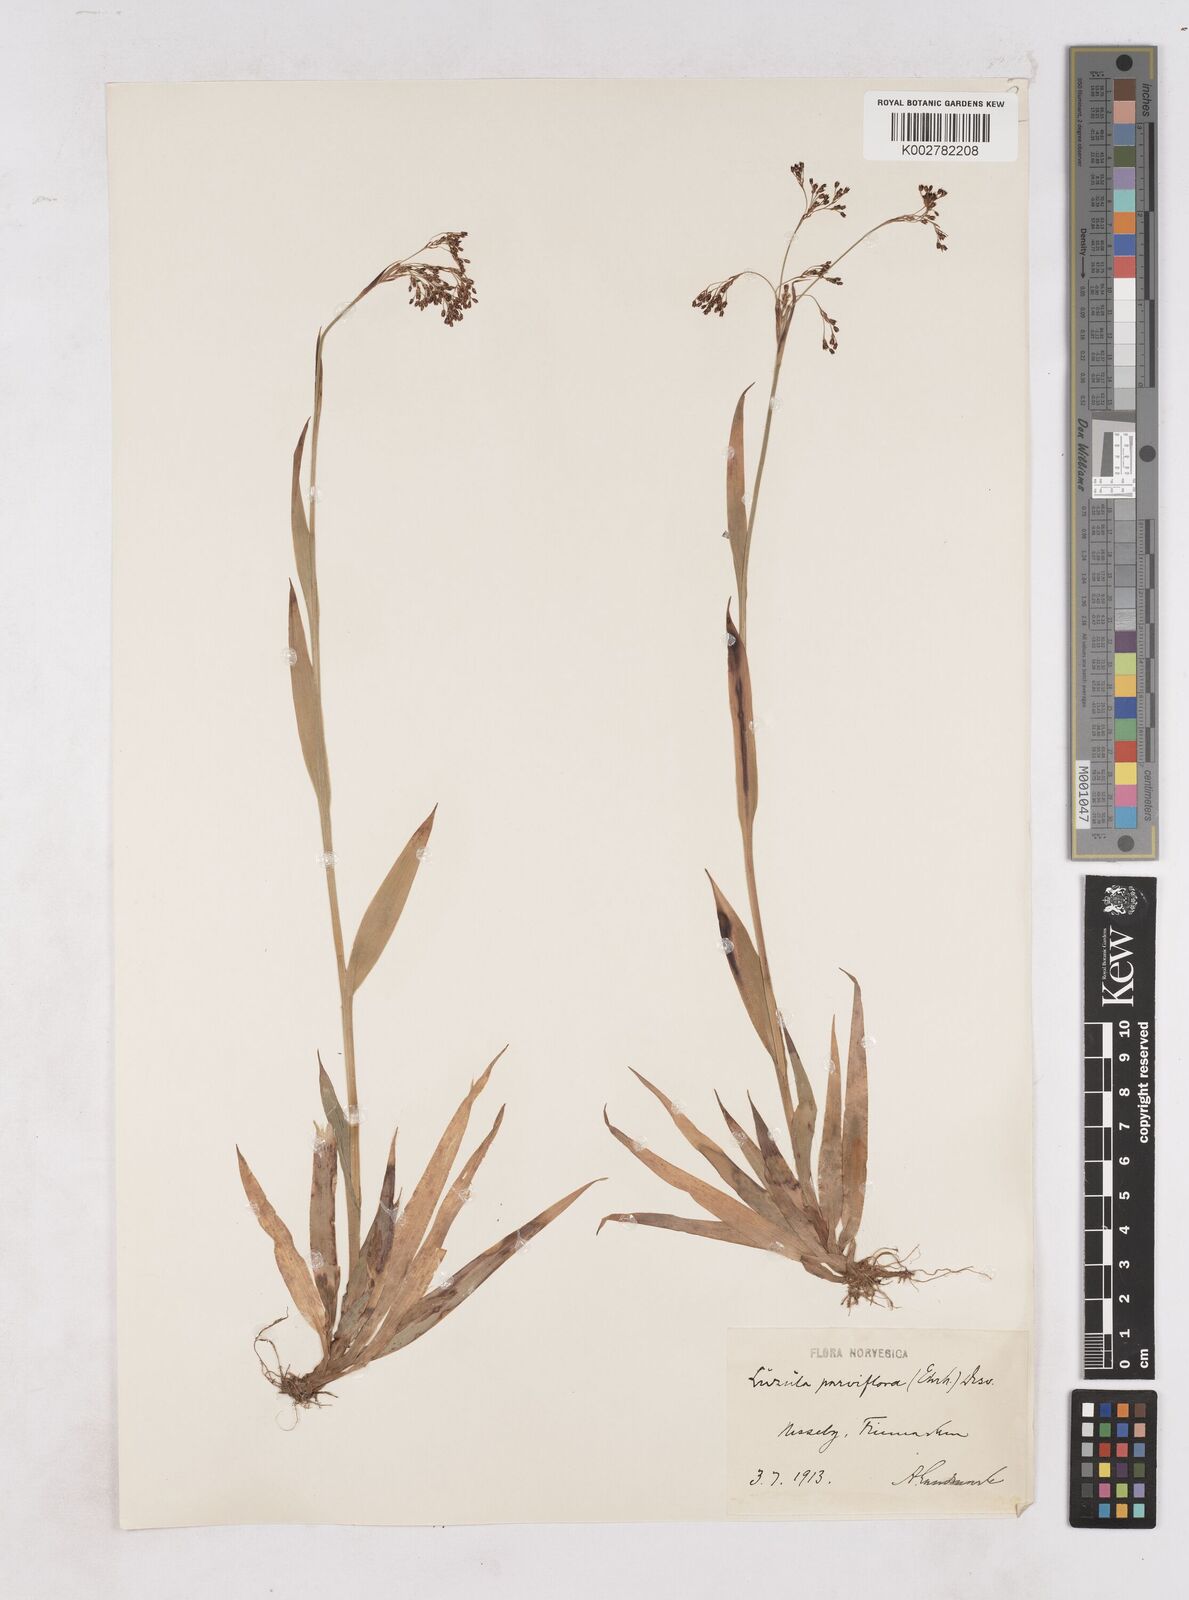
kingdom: Plantae
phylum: Tracheophyta
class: Liliopsida
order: Poales
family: Juncaceae
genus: Luzula
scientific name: Luzula parviflora
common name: Millet woodrush
